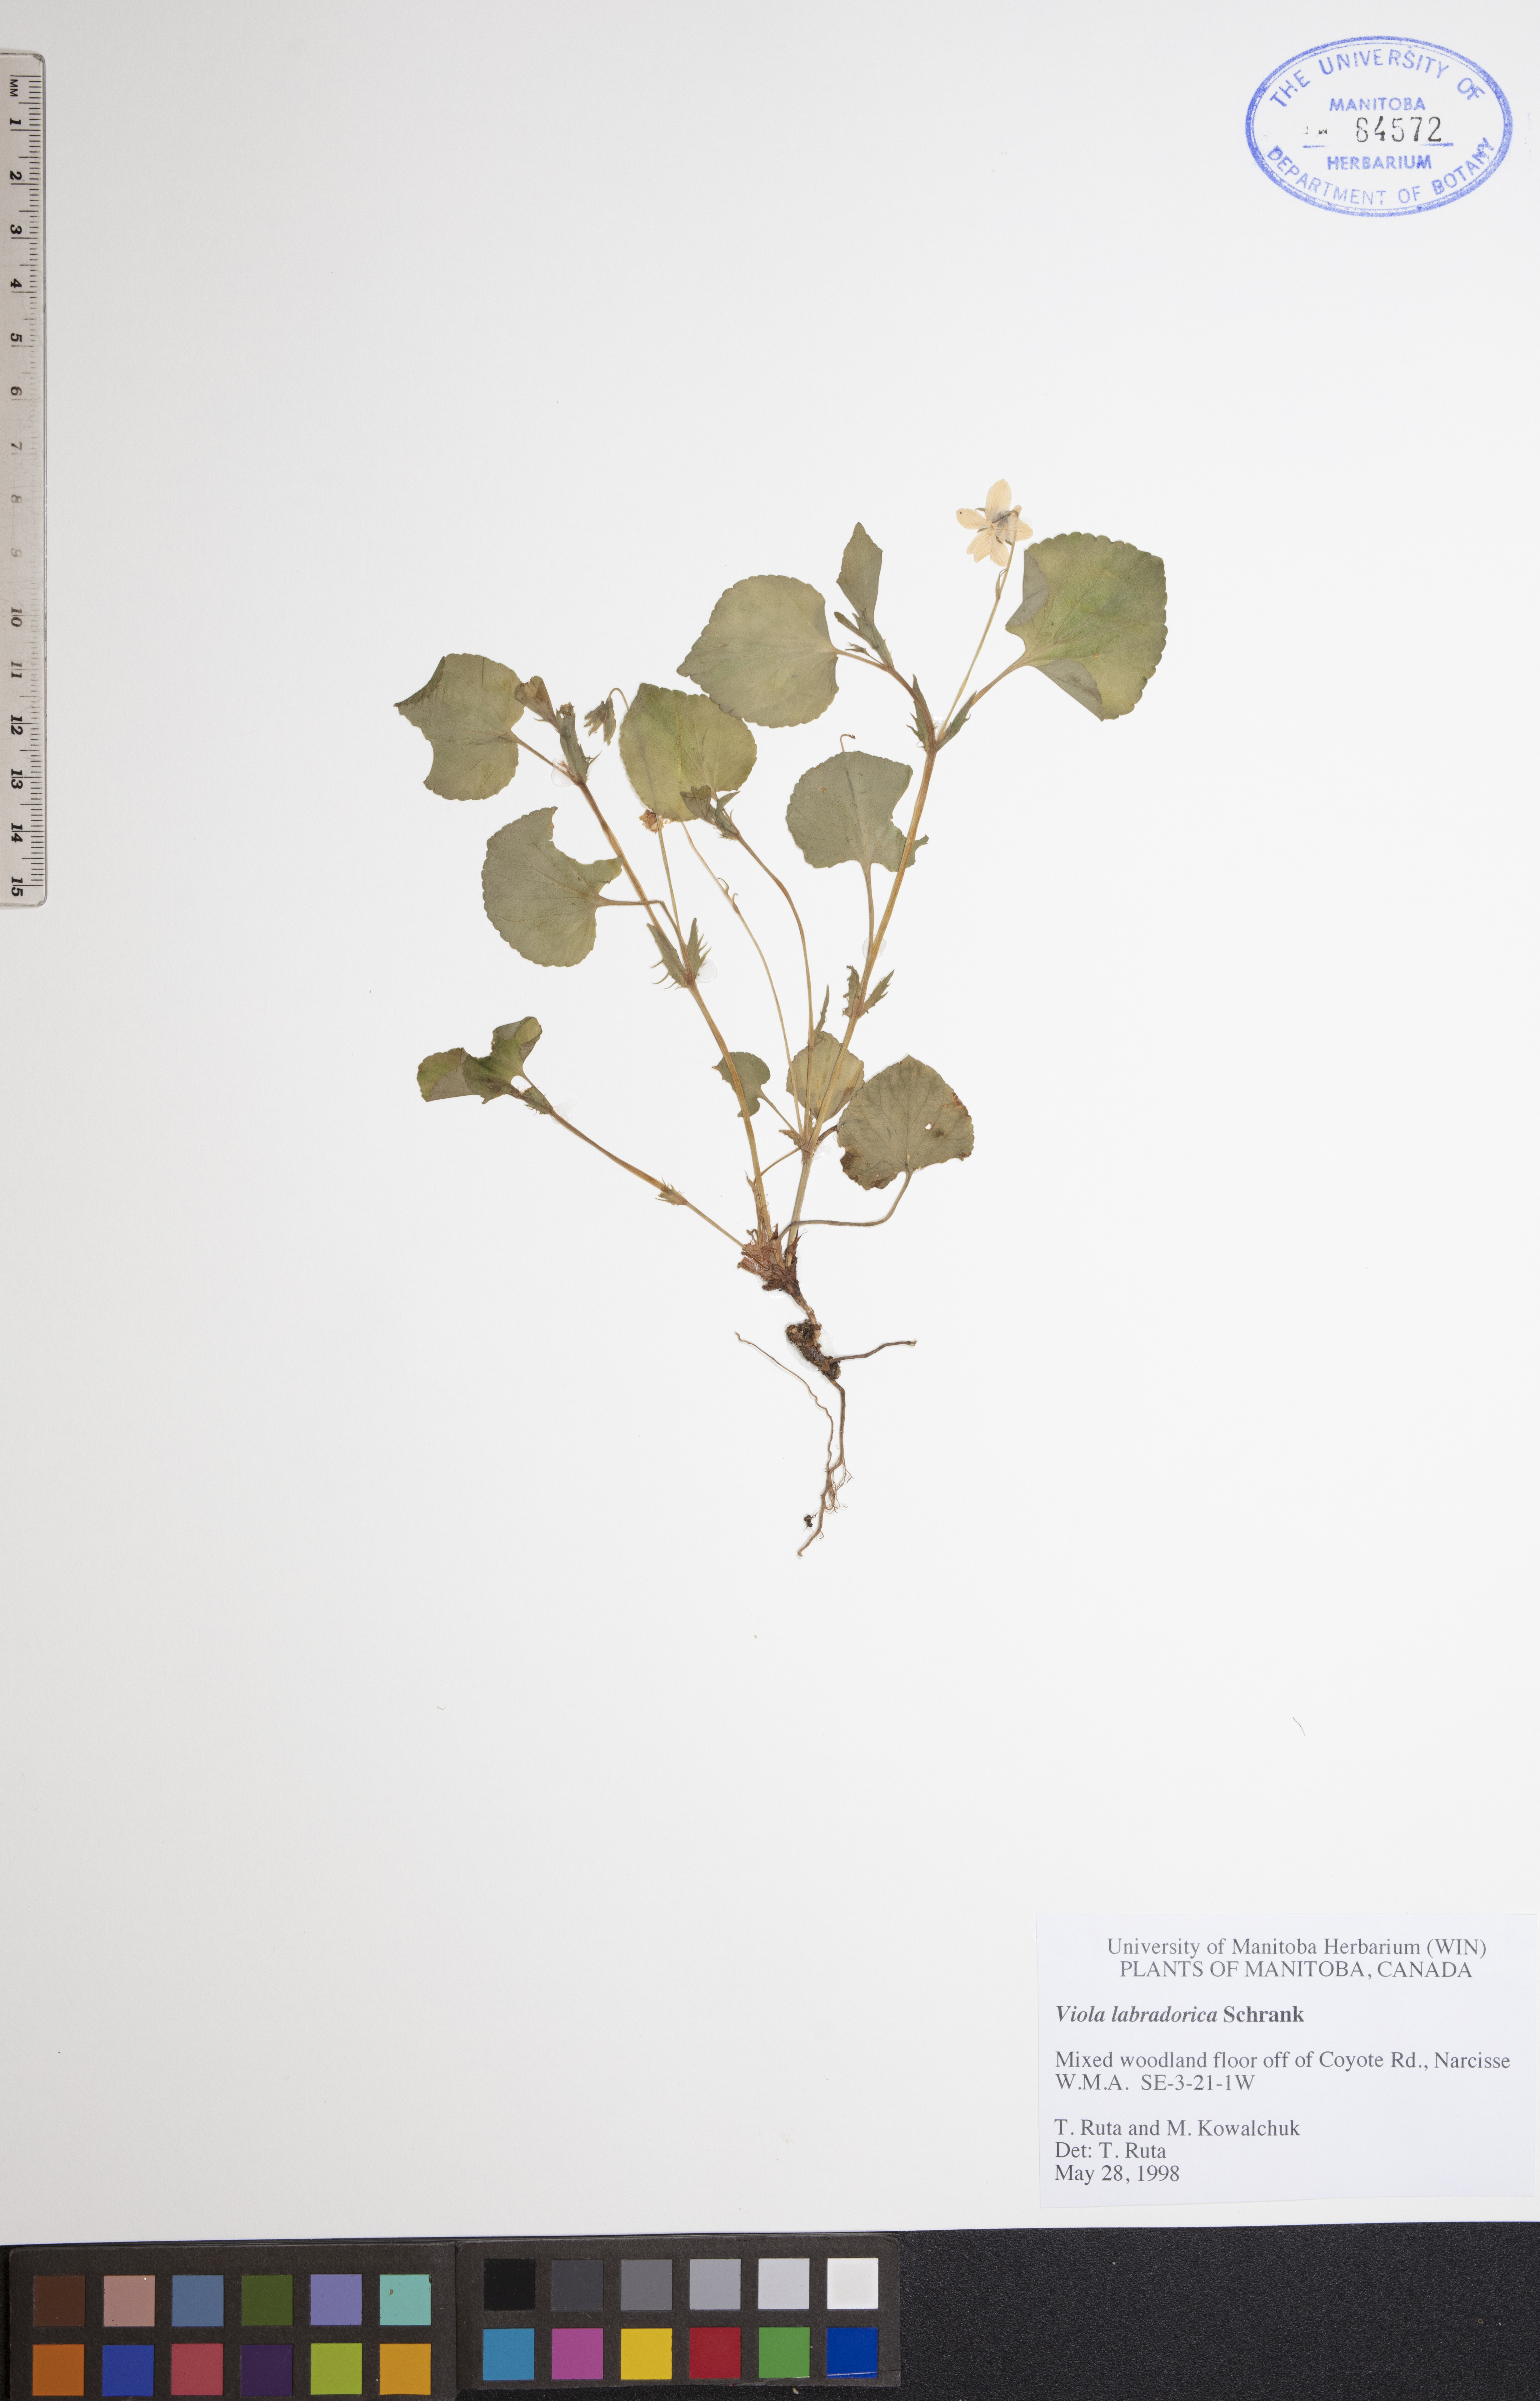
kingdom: Plantae
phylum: Tracheophyta
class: Magnoliopsida
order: Malpighiales
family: Violaceae
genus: Viola
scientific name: Viola labradorica
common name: Labrador violet
